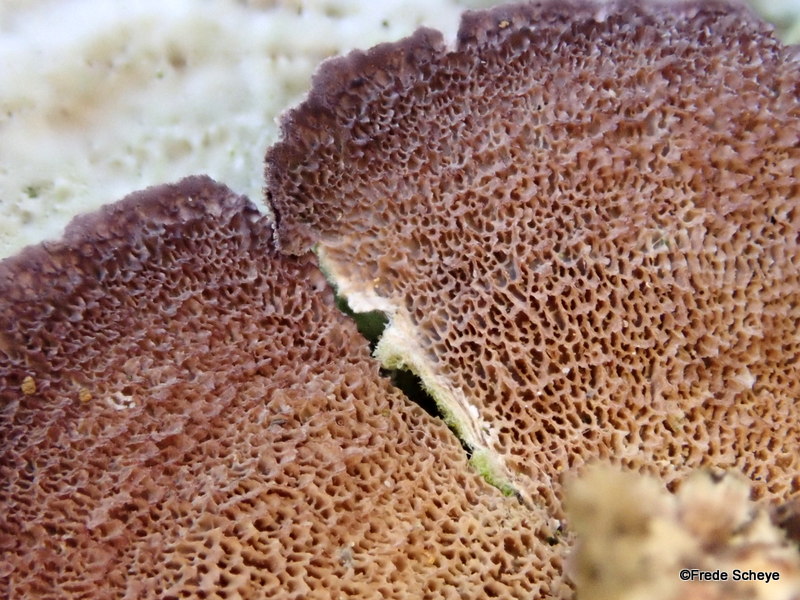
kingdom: Fungi
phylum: Basidiomycota
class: Agaricomycetes
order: Hymenochaetales
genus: Trichaptum
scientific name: Trichaptum abietinum
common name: almindelig violporesvamp
